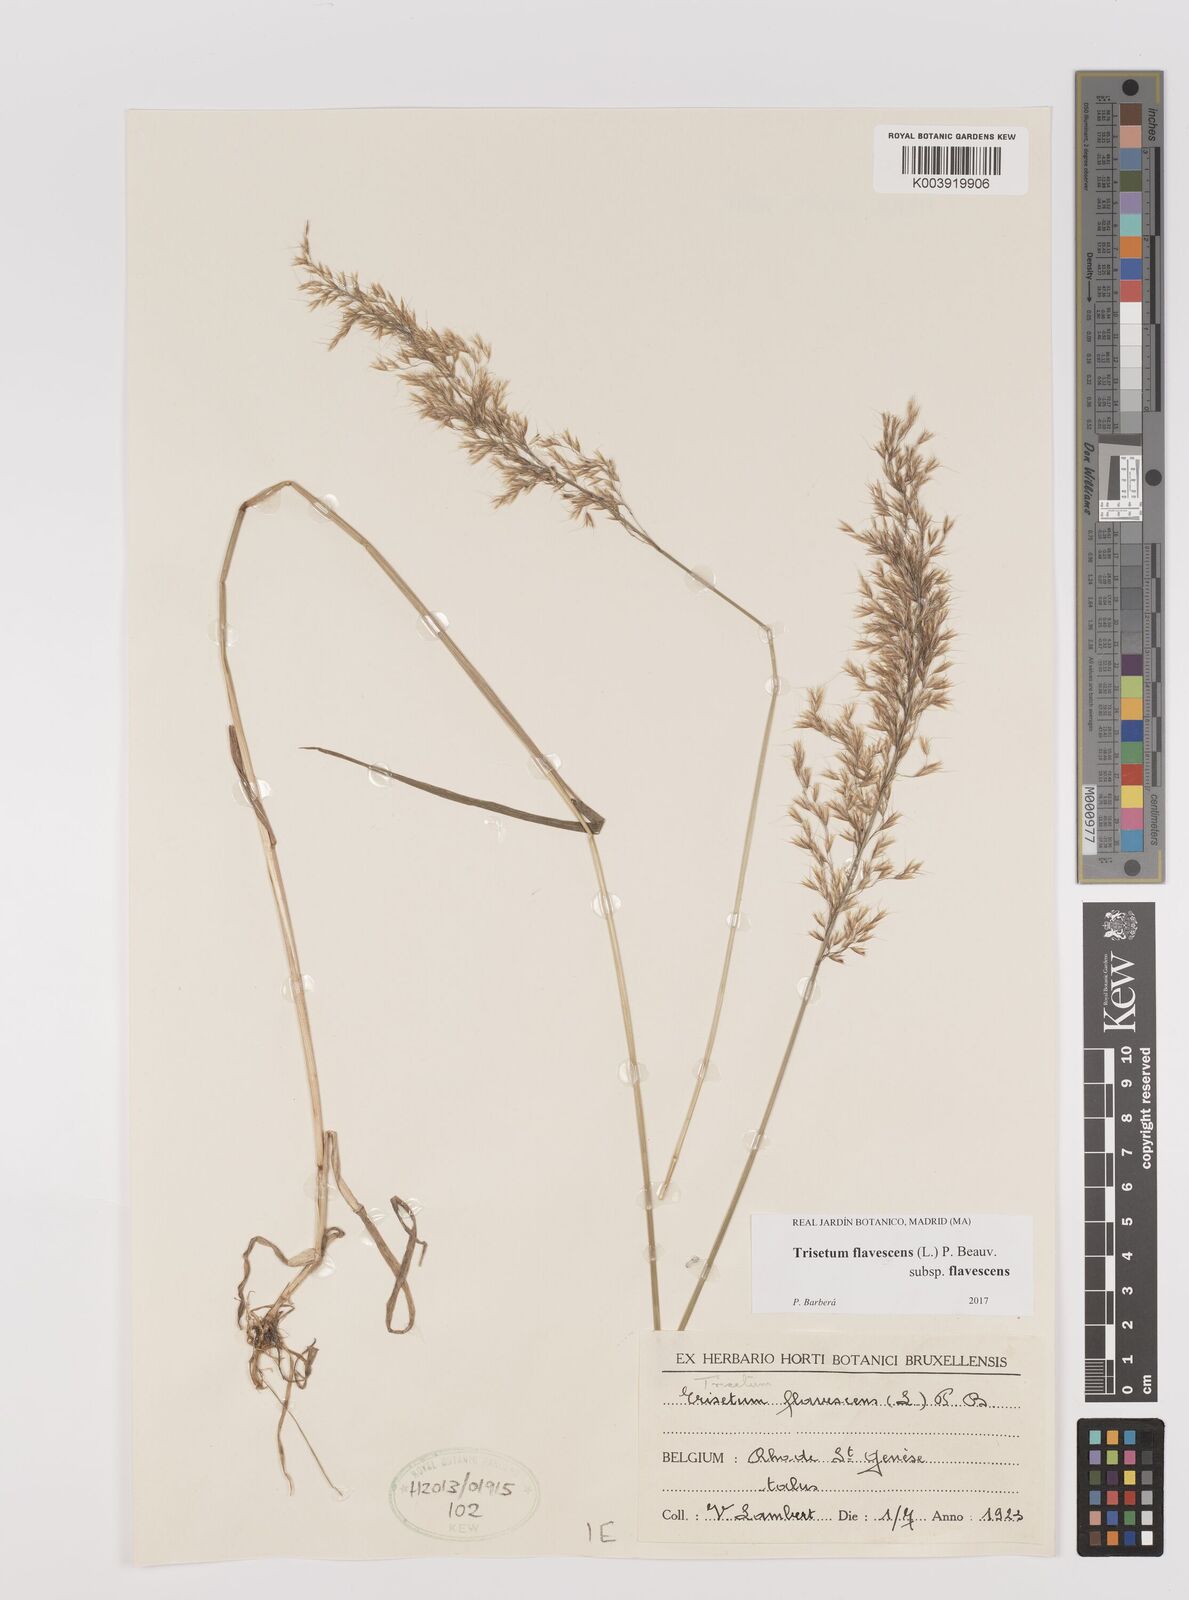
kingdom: Plantae
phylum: Tracheophyta
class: Liliopsida
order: Poales
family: Poaceae
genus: Trisetum
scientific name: Trisetum flavescens
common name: Yellow oat-grass
